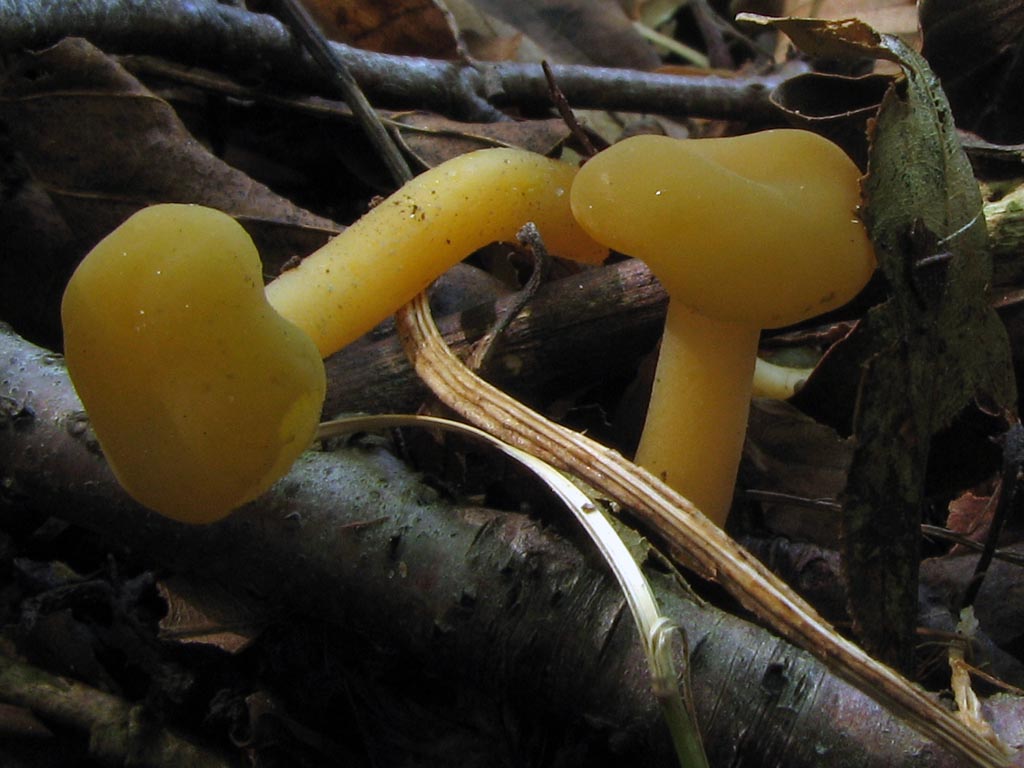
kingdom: Fungi
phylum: Ascomycota
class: Leotiomycetes
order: Leotiales
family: Leotiaceae
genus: Leotia
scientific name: Leotia lubrica
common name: ravsvamp
